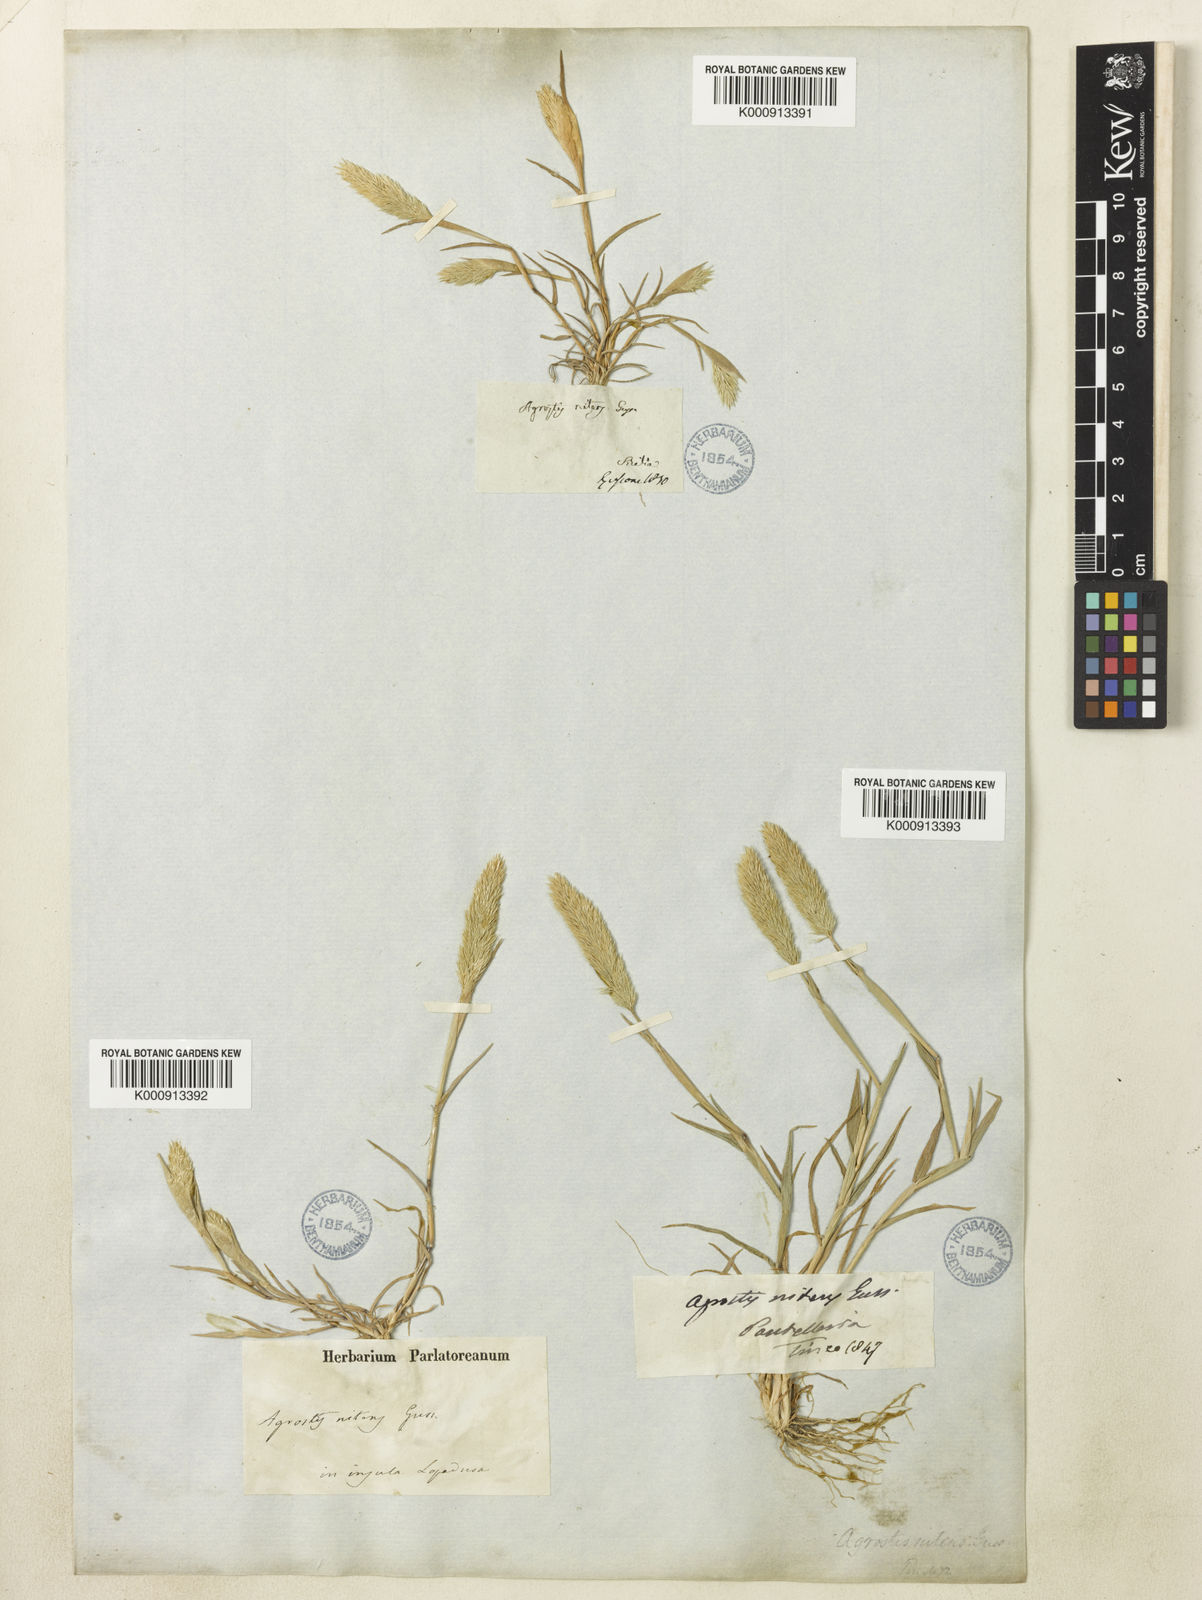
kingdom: Plantae
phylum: Tracheophyta
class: Liliopsida
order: Poales
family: Poaceae
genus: Triplachne
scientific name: Triplachne nitens
